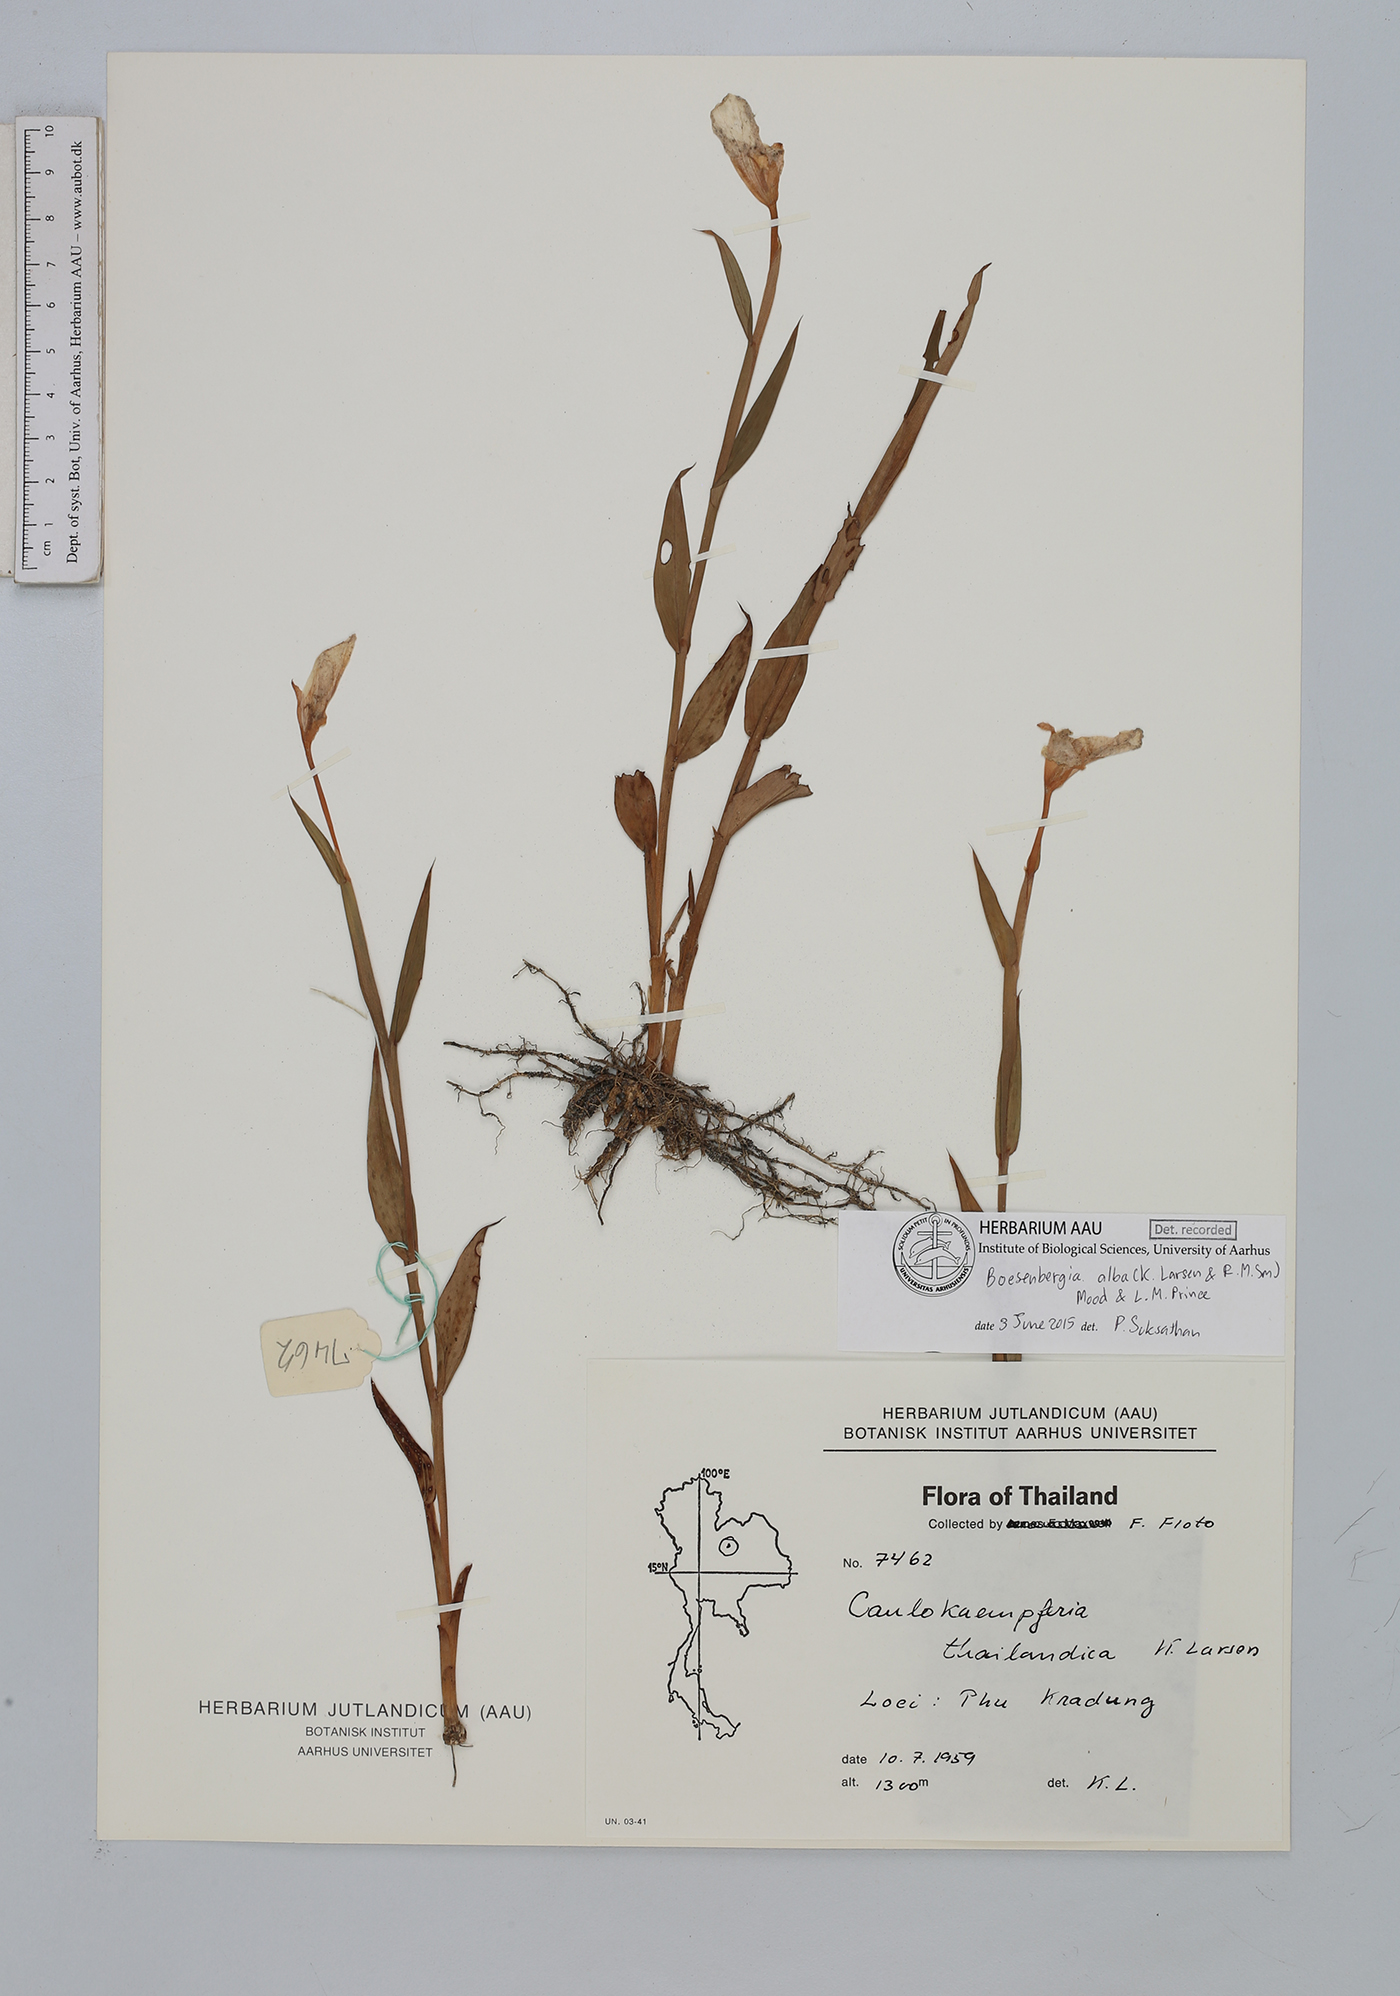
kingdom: Plantae
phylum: Tracheophyta
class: Liliopsida
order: Zingiberales
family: Zingiberaceae
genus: Boesenbergia
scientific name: Boesenbergia alba
